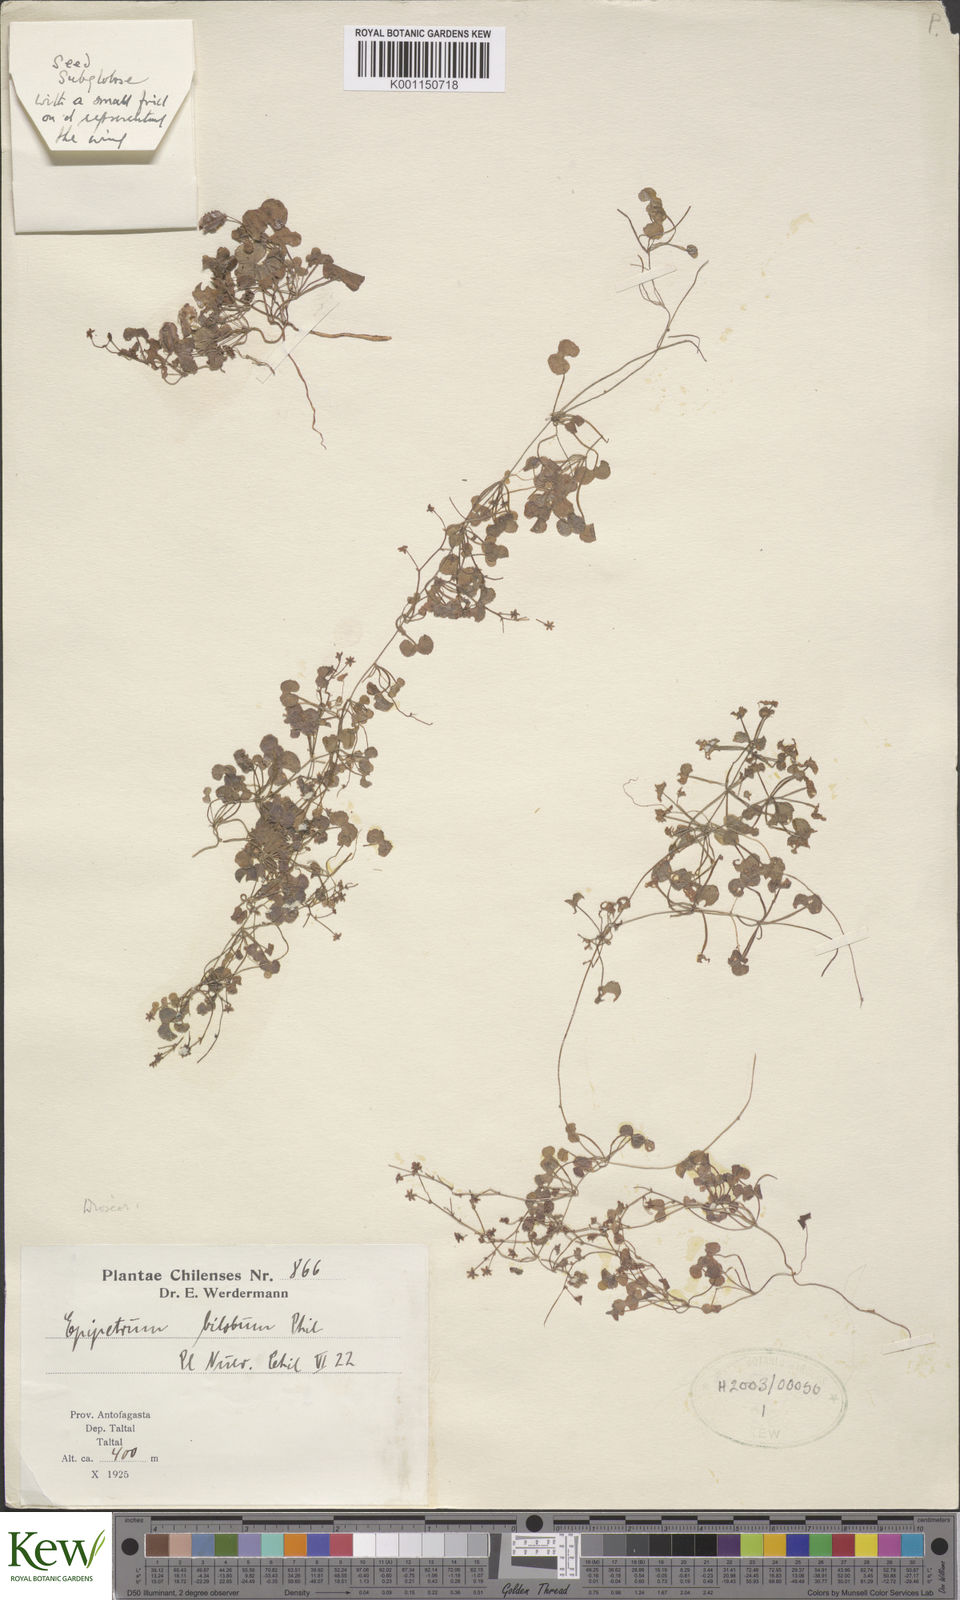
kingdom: Plantae
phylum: Tracheophyta
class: Liliopsida
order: Dioscoreales
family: Dioscoreaceae
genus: Dioscorea
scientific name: Dioscorea biloba
